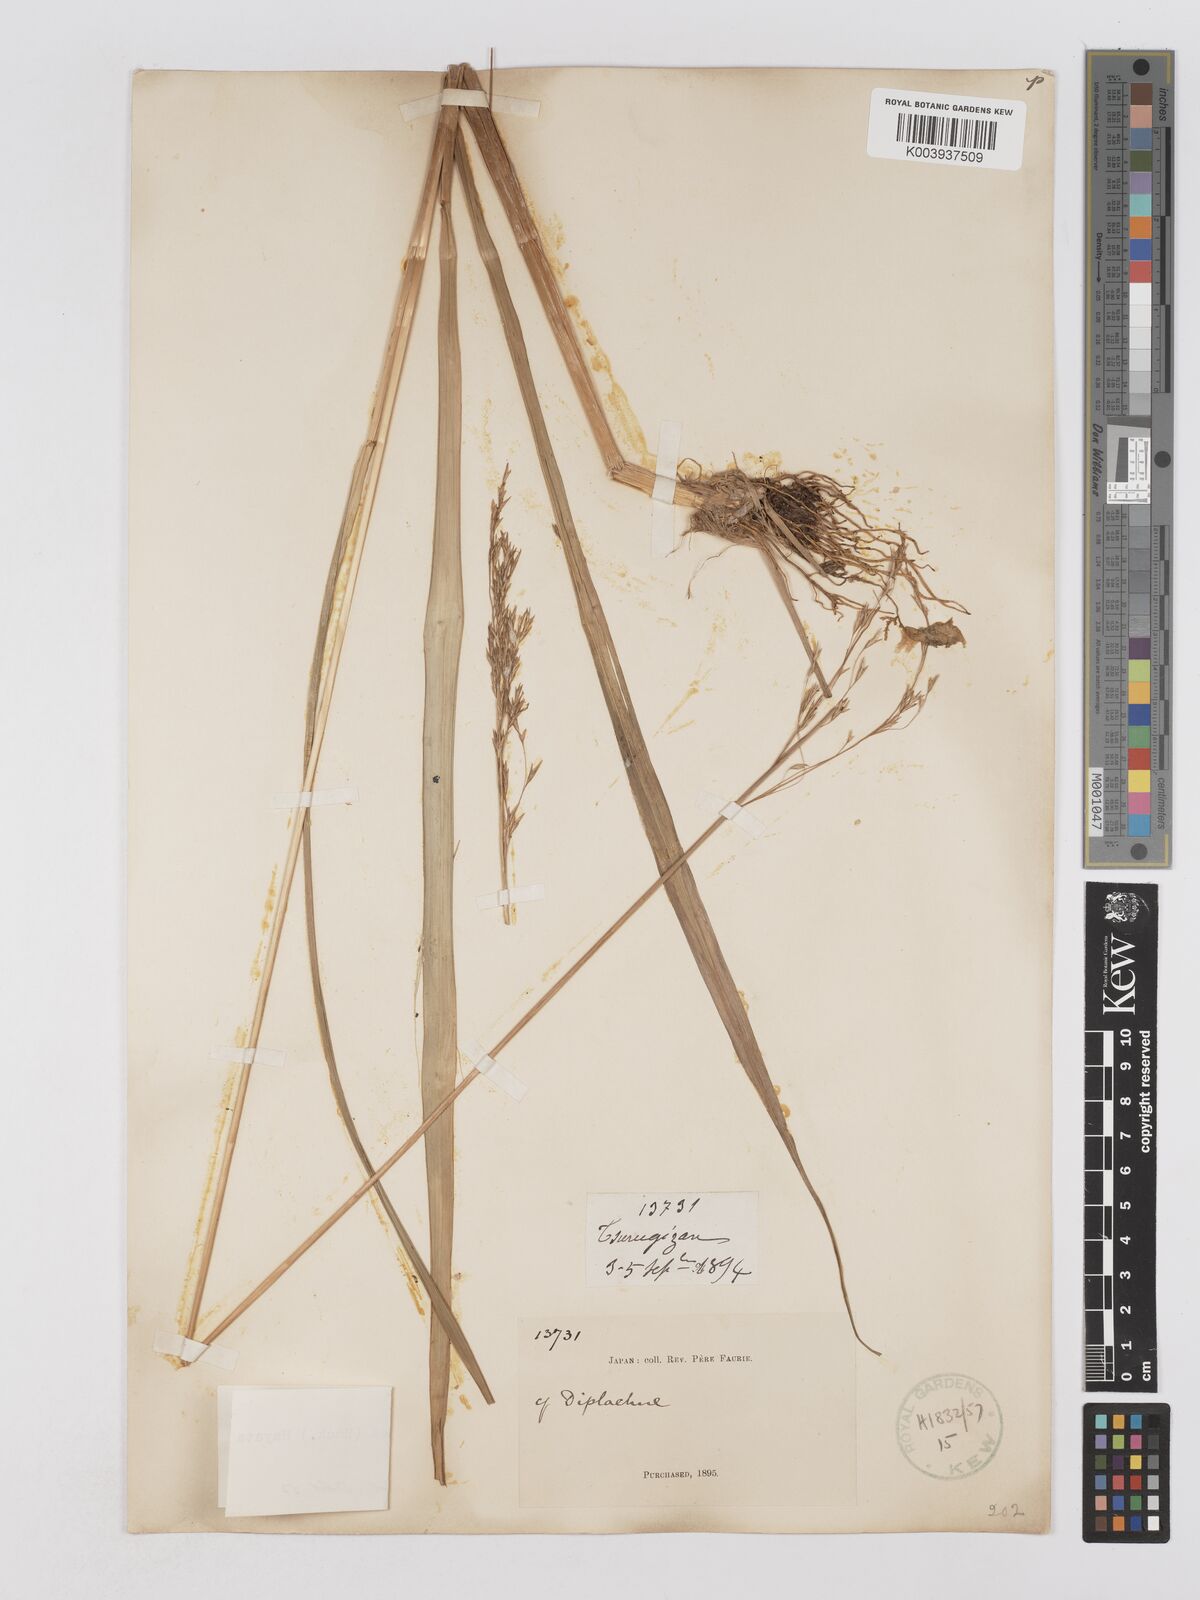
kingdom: Plantae
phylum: Tracheophyta
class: Liliopsida
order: Poales
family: Poaceae
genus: Moliniopsis
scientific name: Moliniopsis japonica
